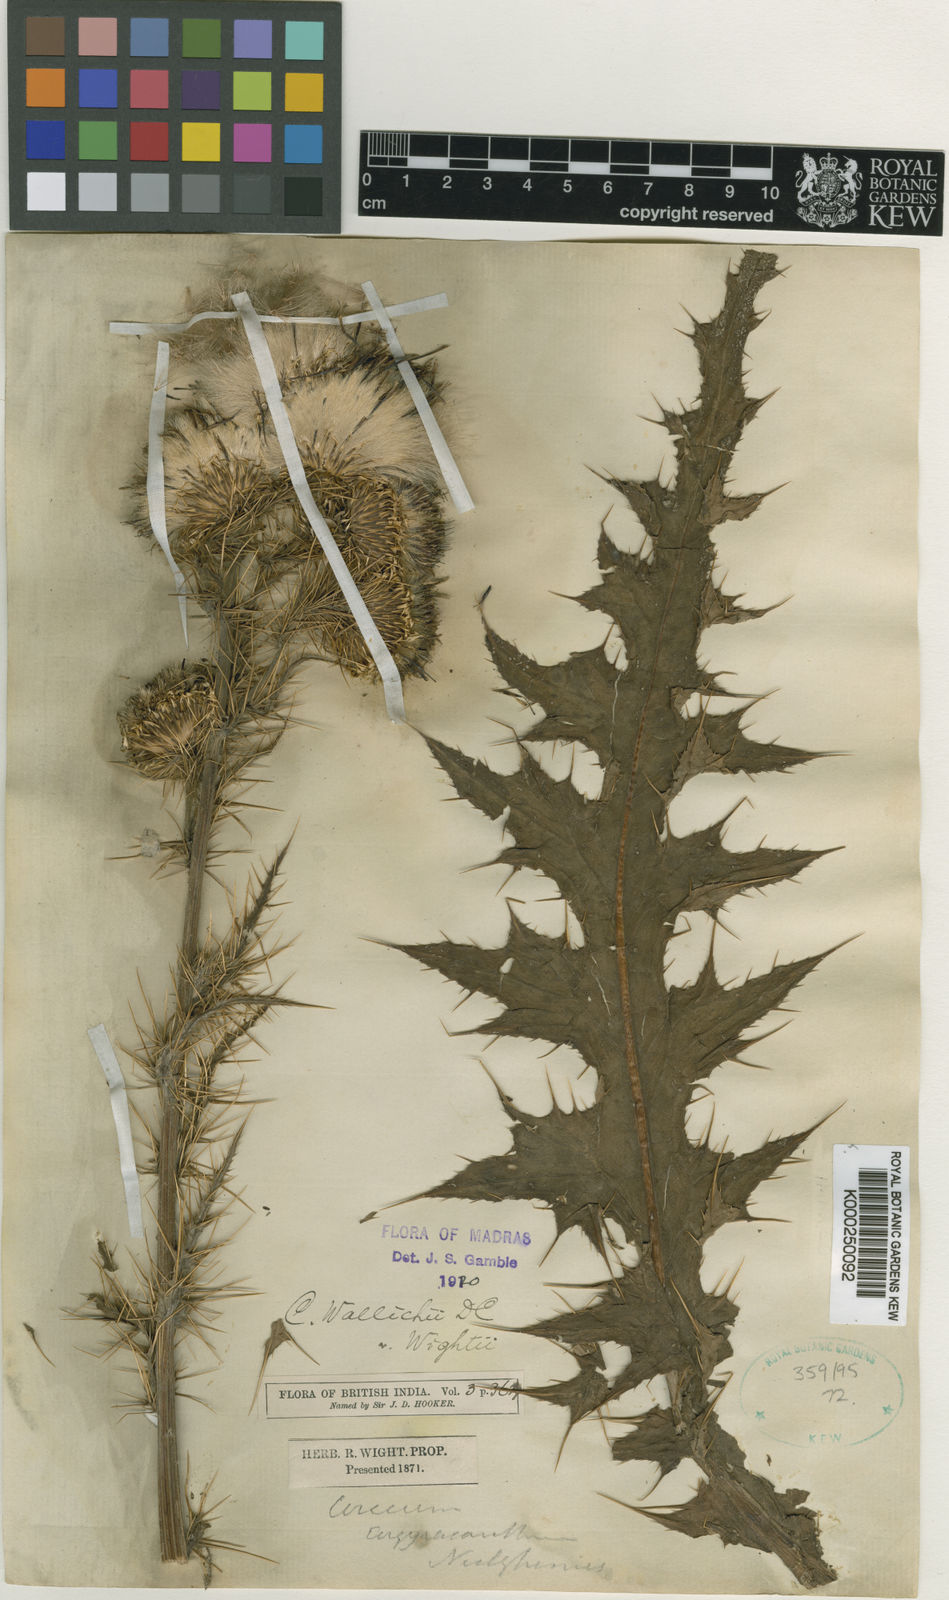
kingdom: Plantae
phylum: Tracheophyta
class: Magnoliopsida
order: Asterales
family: Asteraceae
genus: Cirsium
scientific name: Cirsium wallichii
